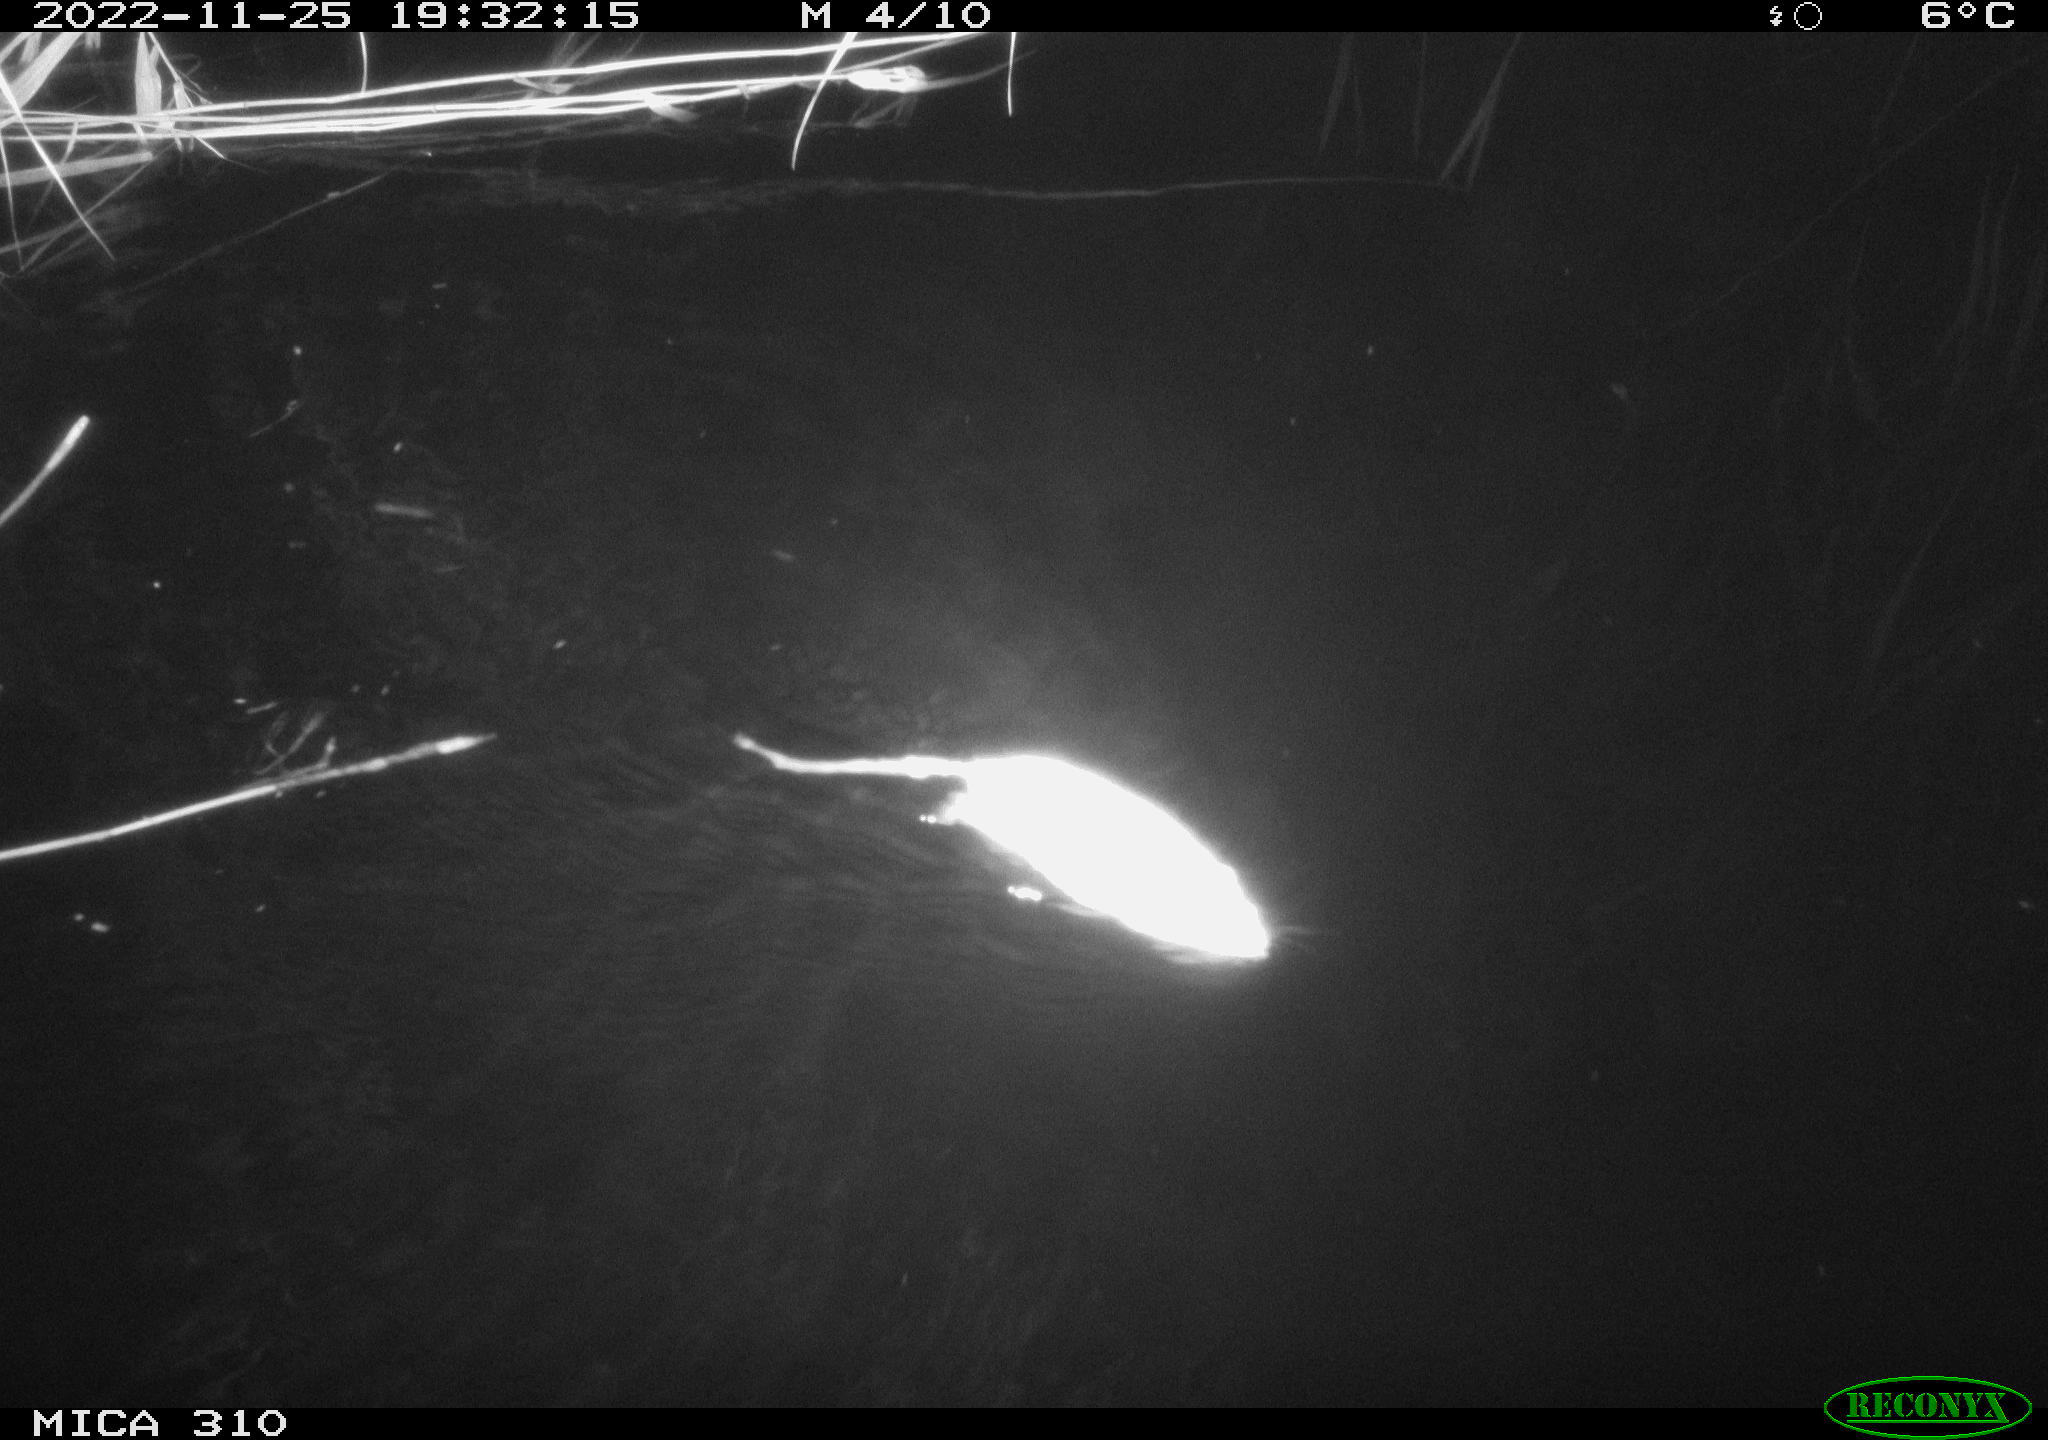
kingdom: Animalia
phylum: Chordata
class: Mammalia
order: Rodentia
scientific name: Rodentia
